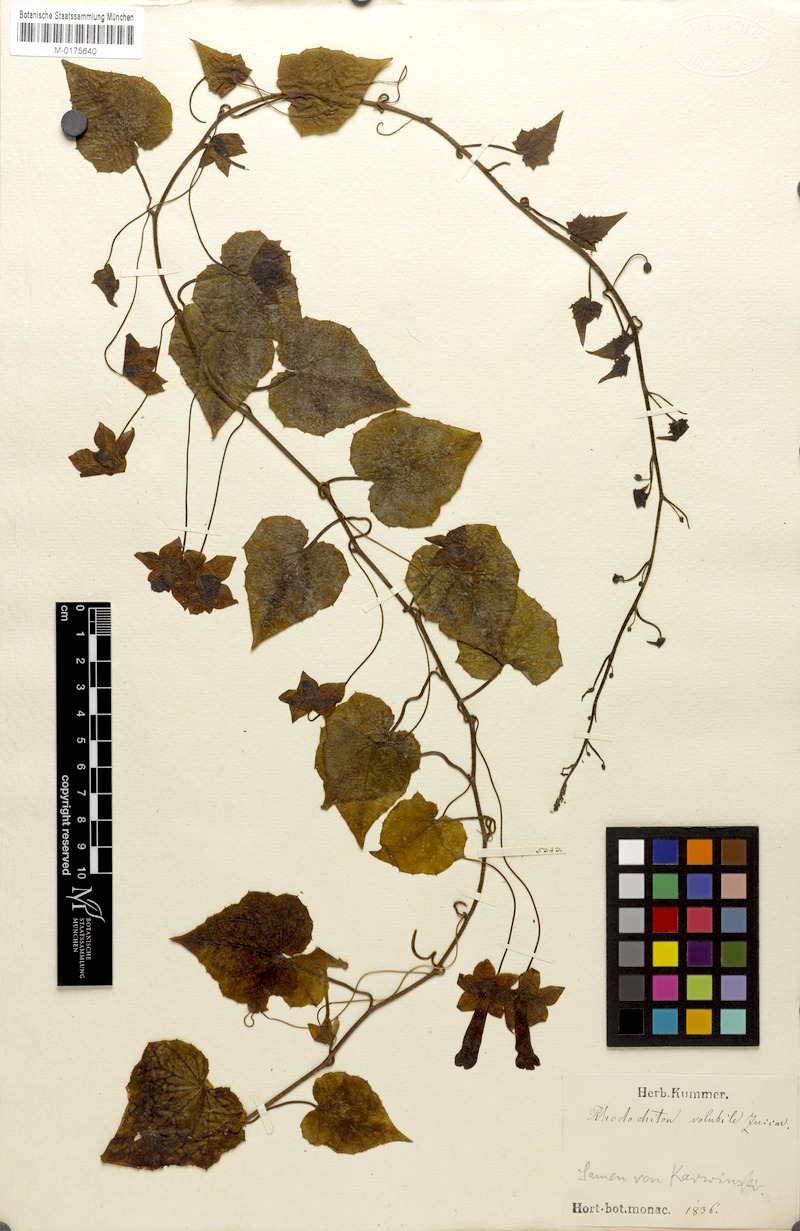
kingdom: Plantae
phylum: Tracheophyta
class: Magnoliopsida
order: Lamiales
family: Plantaginaceae
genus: Rhodochiton
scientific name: Rhodochiton atrosanguineus
